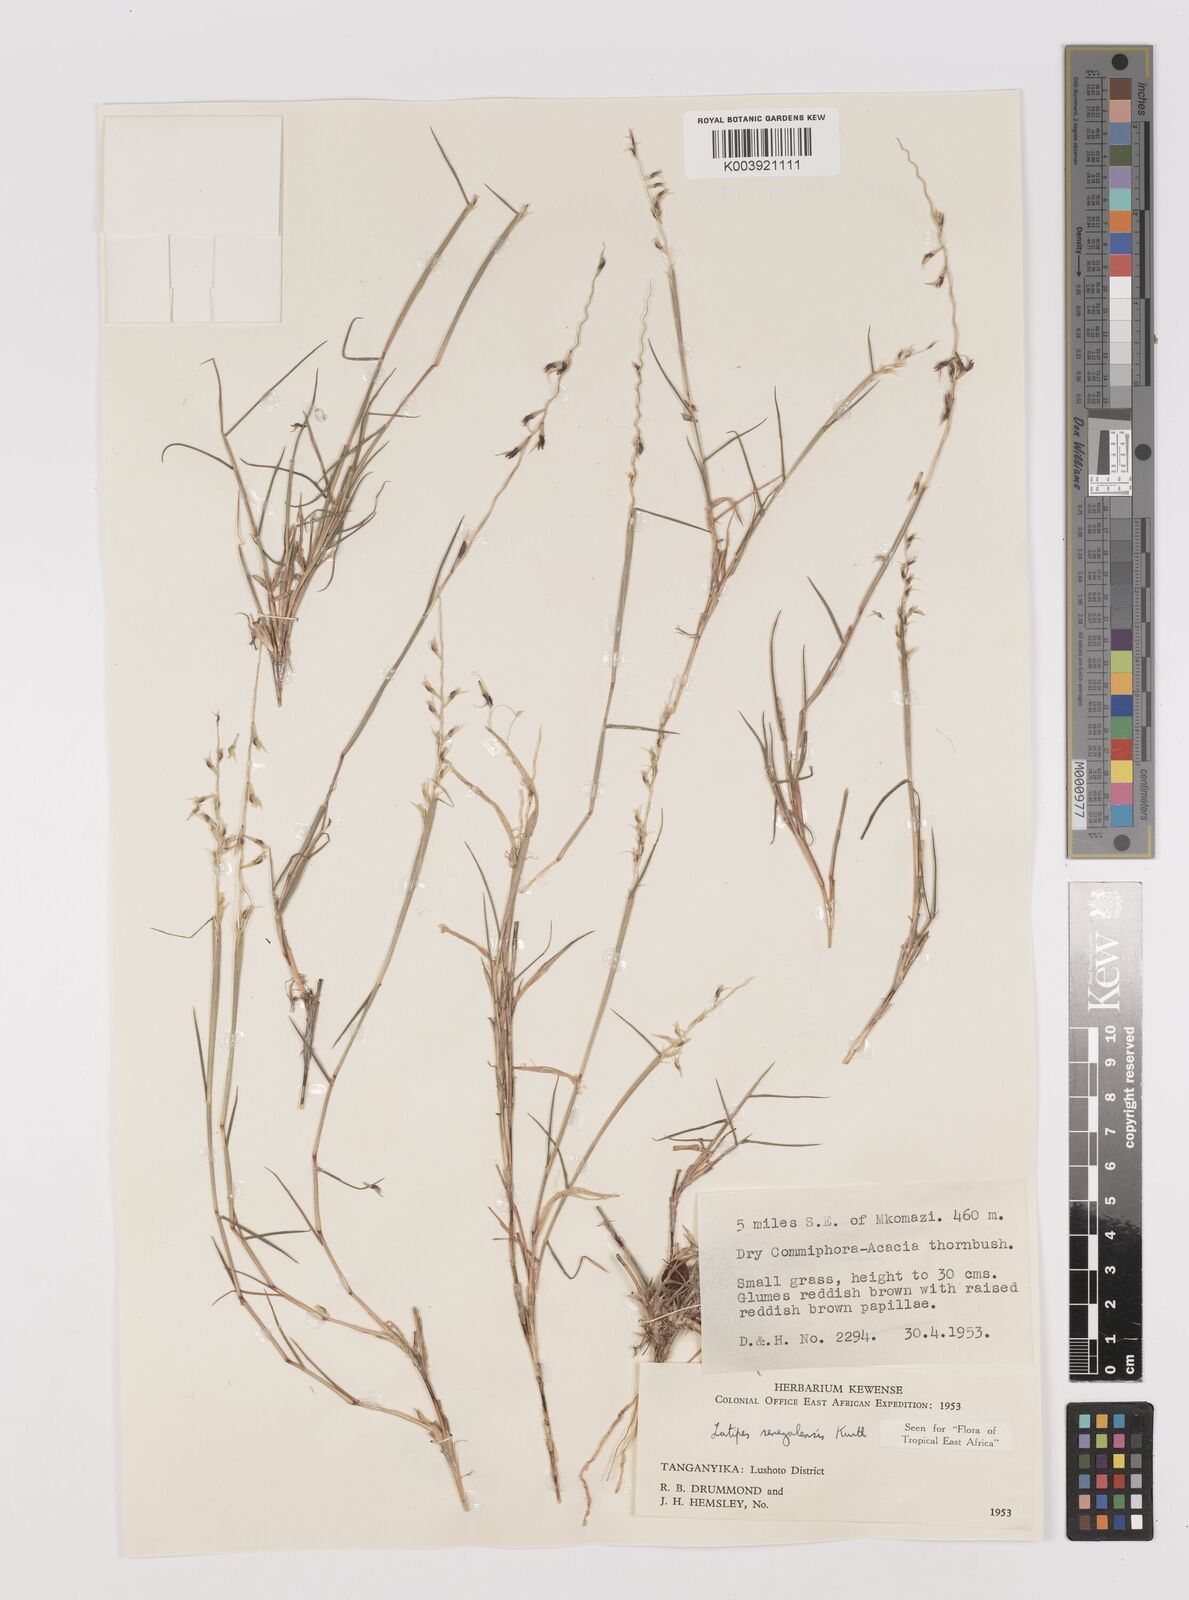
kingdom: Plantae
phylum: Tracheophyta
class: Liliopsida
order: Poales
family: Poaceae
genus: Leptothrium
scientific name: Leptothrium senegalense
